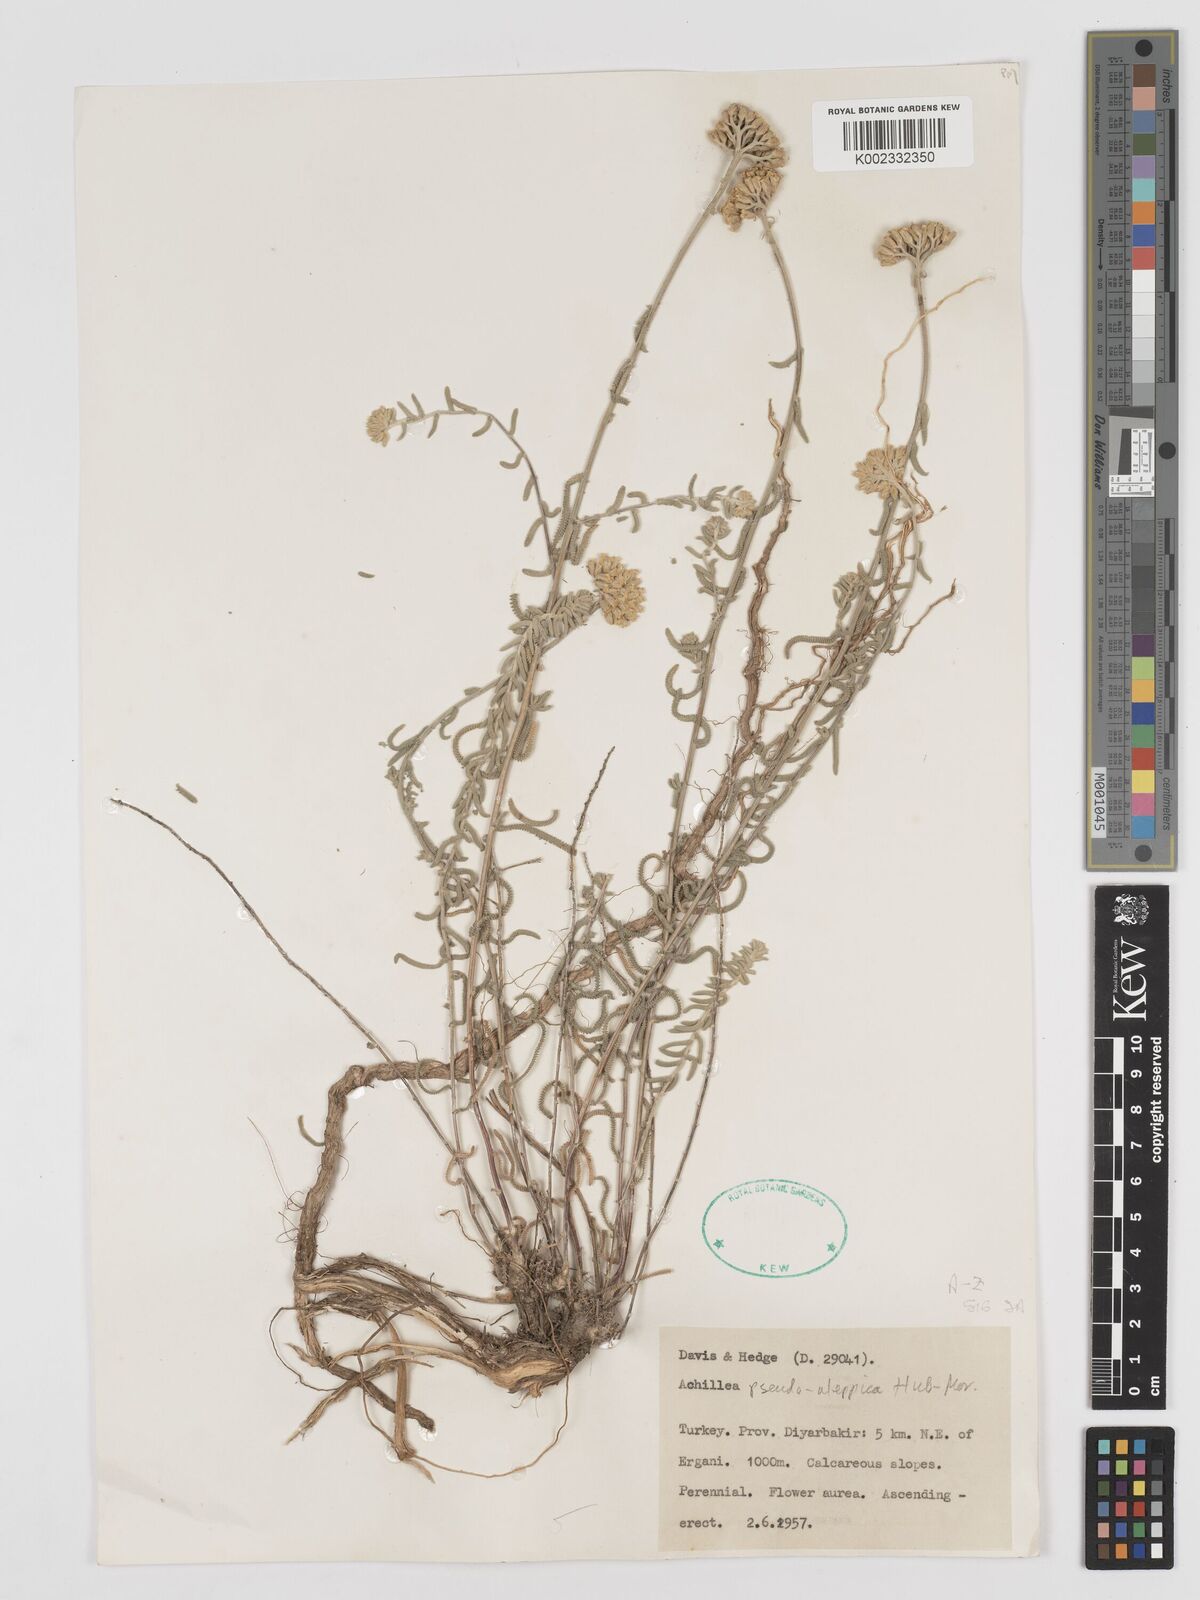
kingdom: Plantae
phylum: Tracheophyta
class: Magnoliopsida
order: Asterales
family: Asteraceae
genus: Achillea
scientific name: Achillea pseudoaleppica
